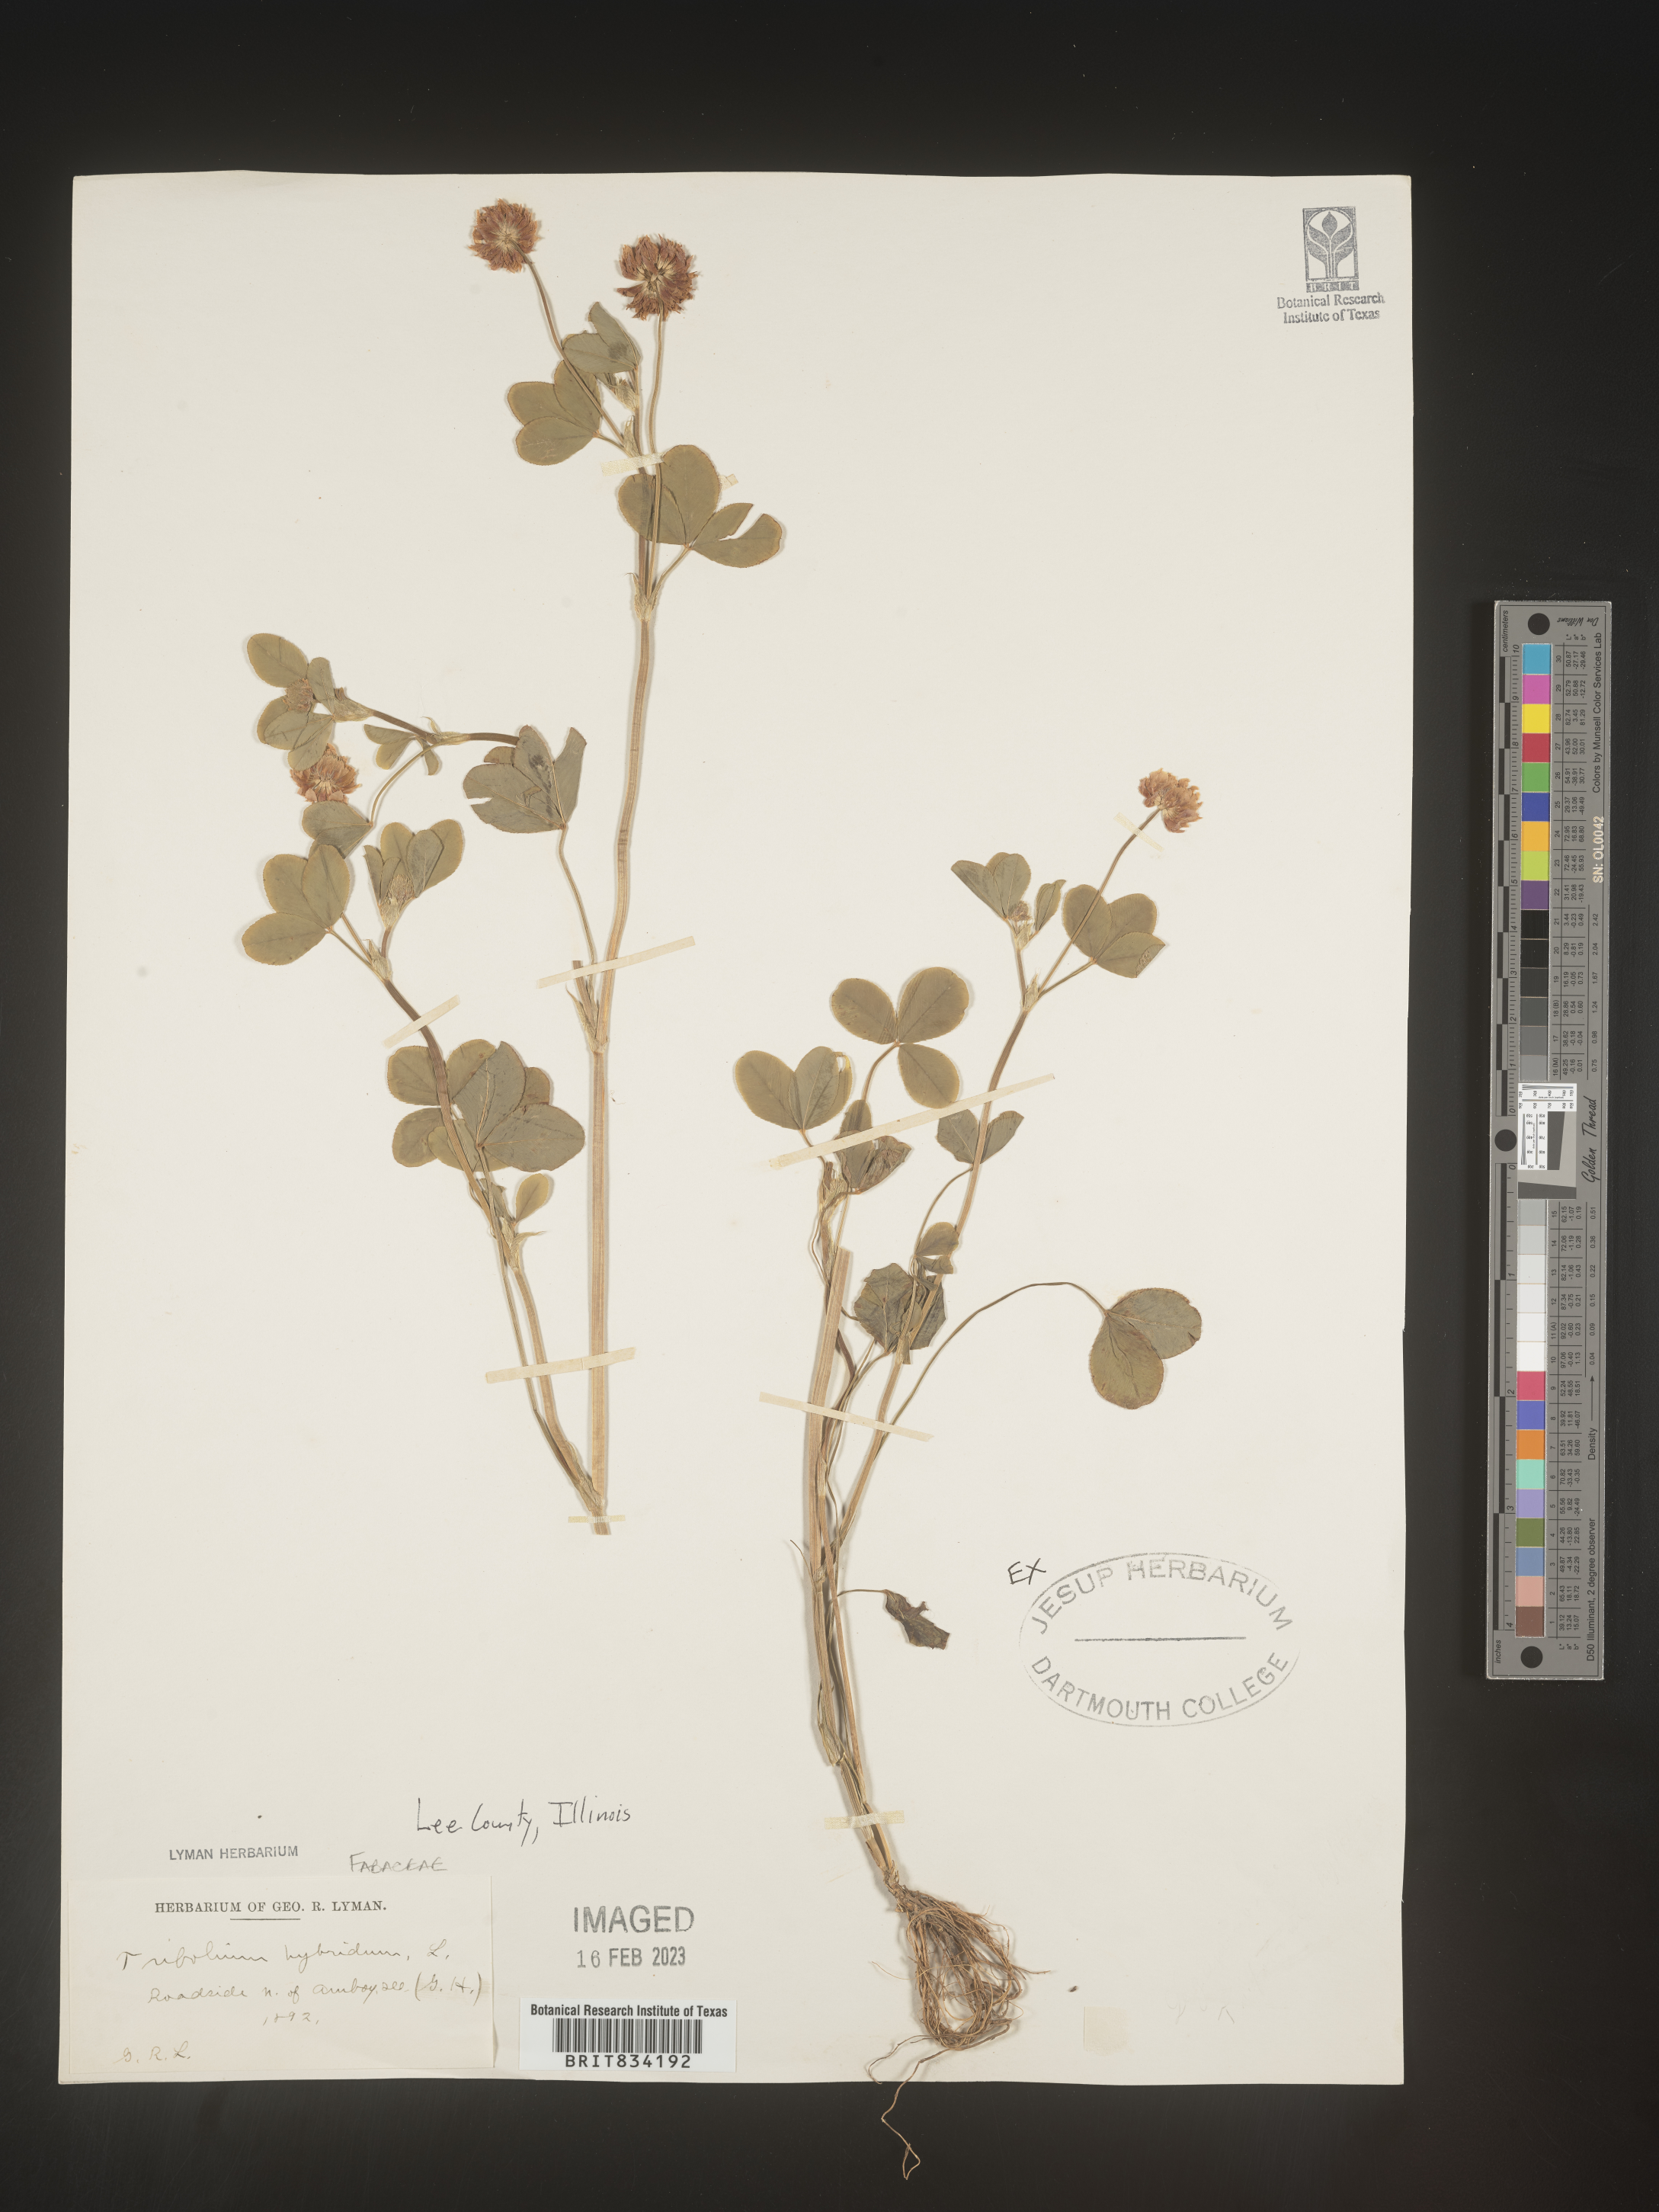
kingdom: Plantae
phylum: Tracheophyta
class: Magnoliopsida
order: Fabales
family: Fabaceae
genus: Trifolium
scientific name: Trifolium hybridum
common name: Alsike clover
